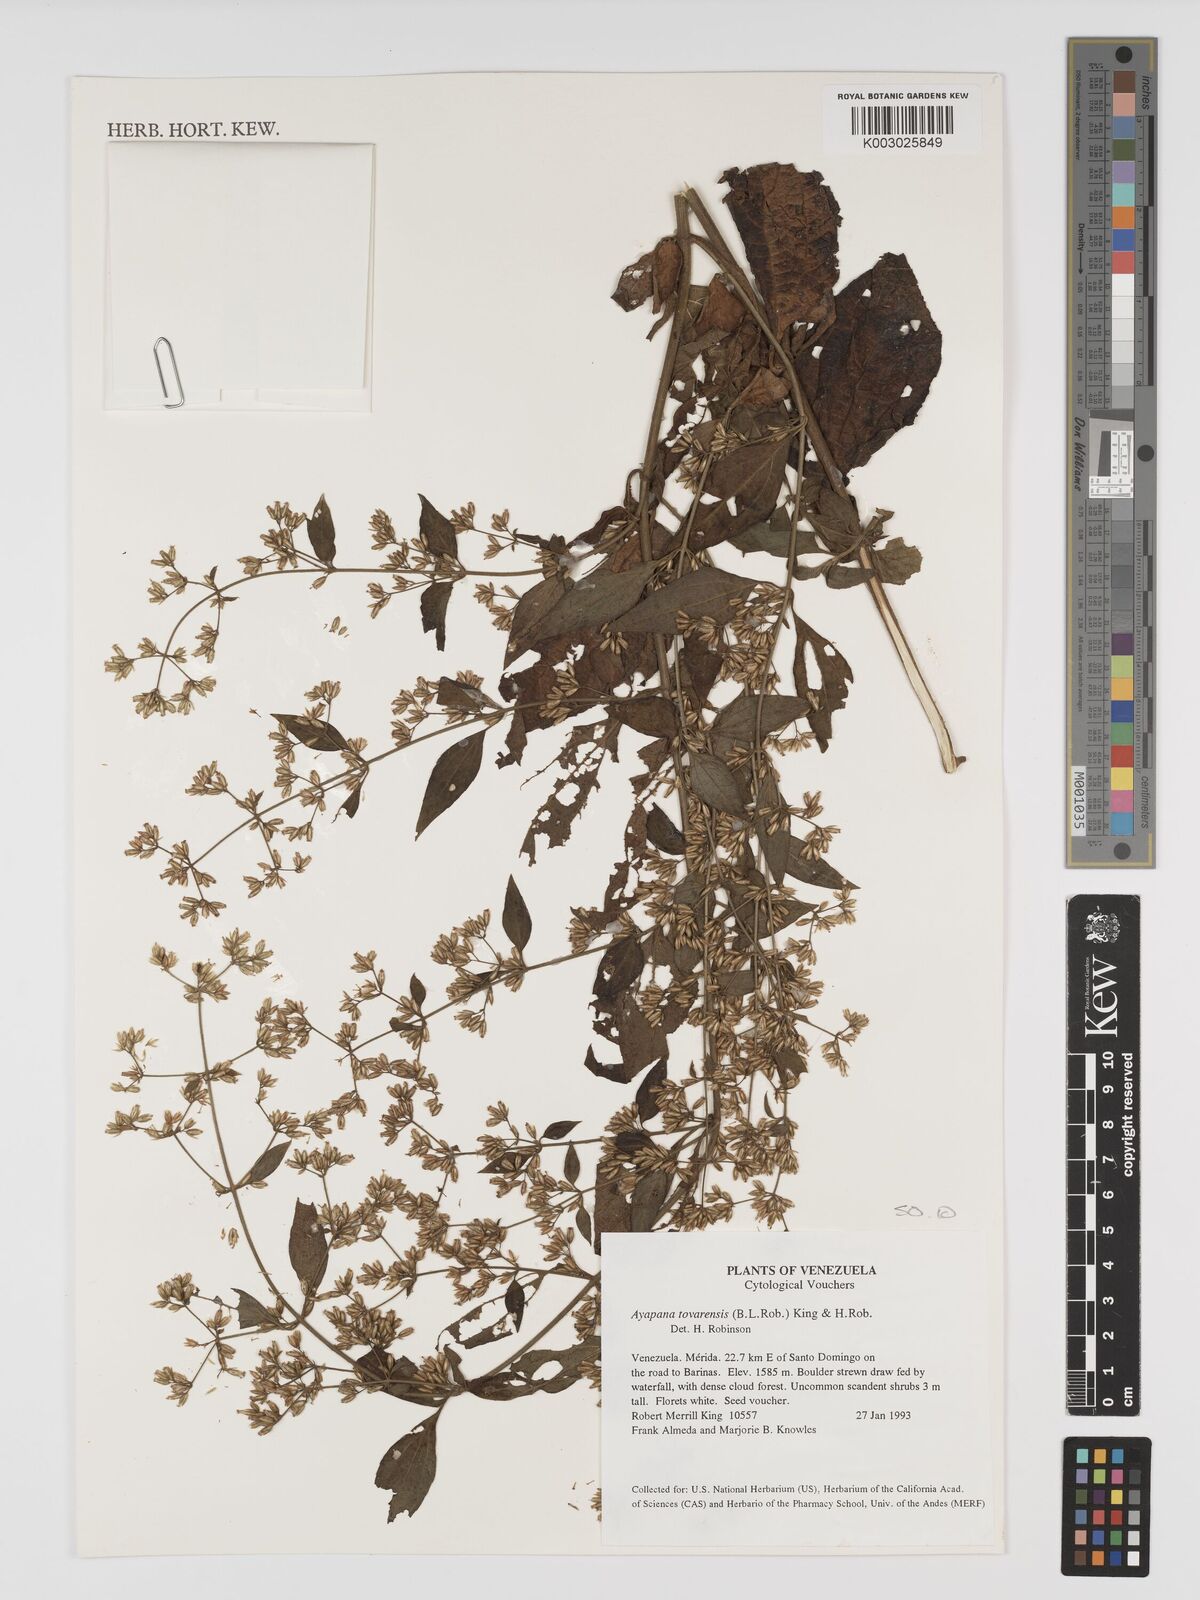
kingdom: Plantae
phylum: Tracheophyta
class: Magnoliopsida
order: Asterales
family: Asteraceae
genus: Ayapana
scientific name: Ayapana tovarensis
